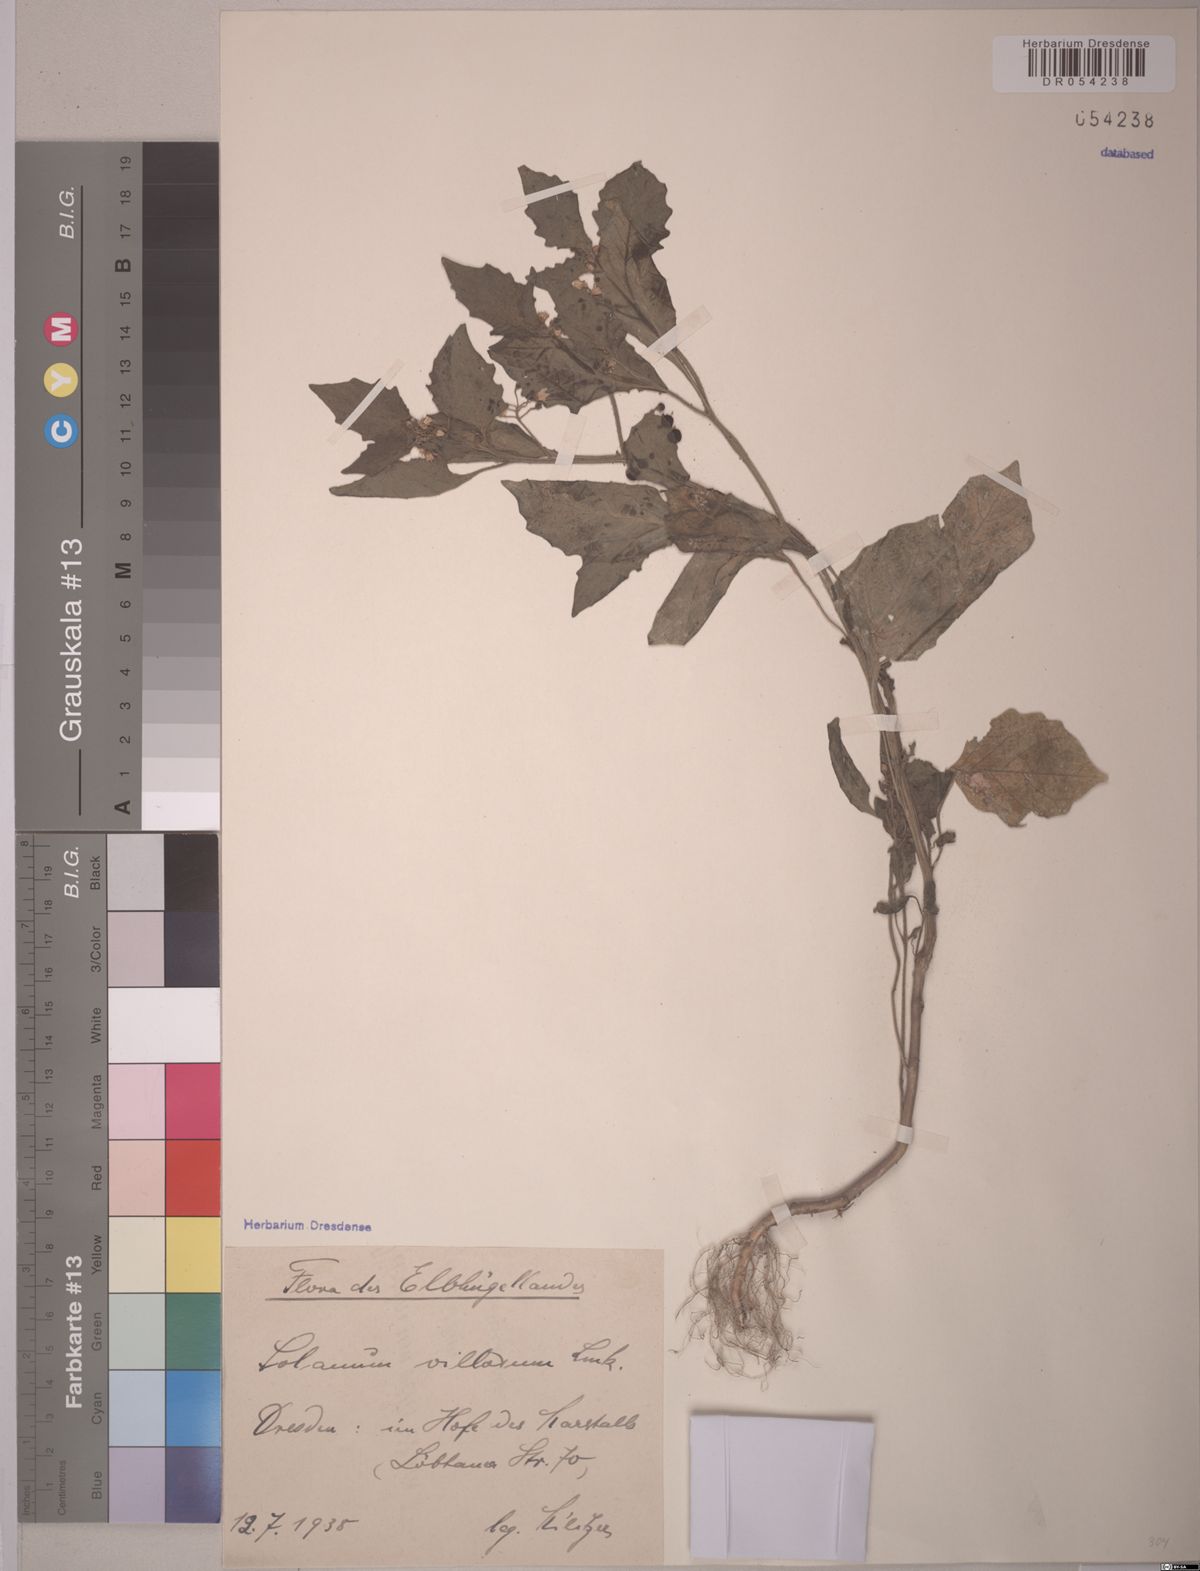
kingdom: Plantae
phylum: Tracheophyta
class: Magnoliopsida
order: Solanales
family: Solanaceae
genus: Solanum
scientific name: Solanum villosum
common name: Red nightshade
